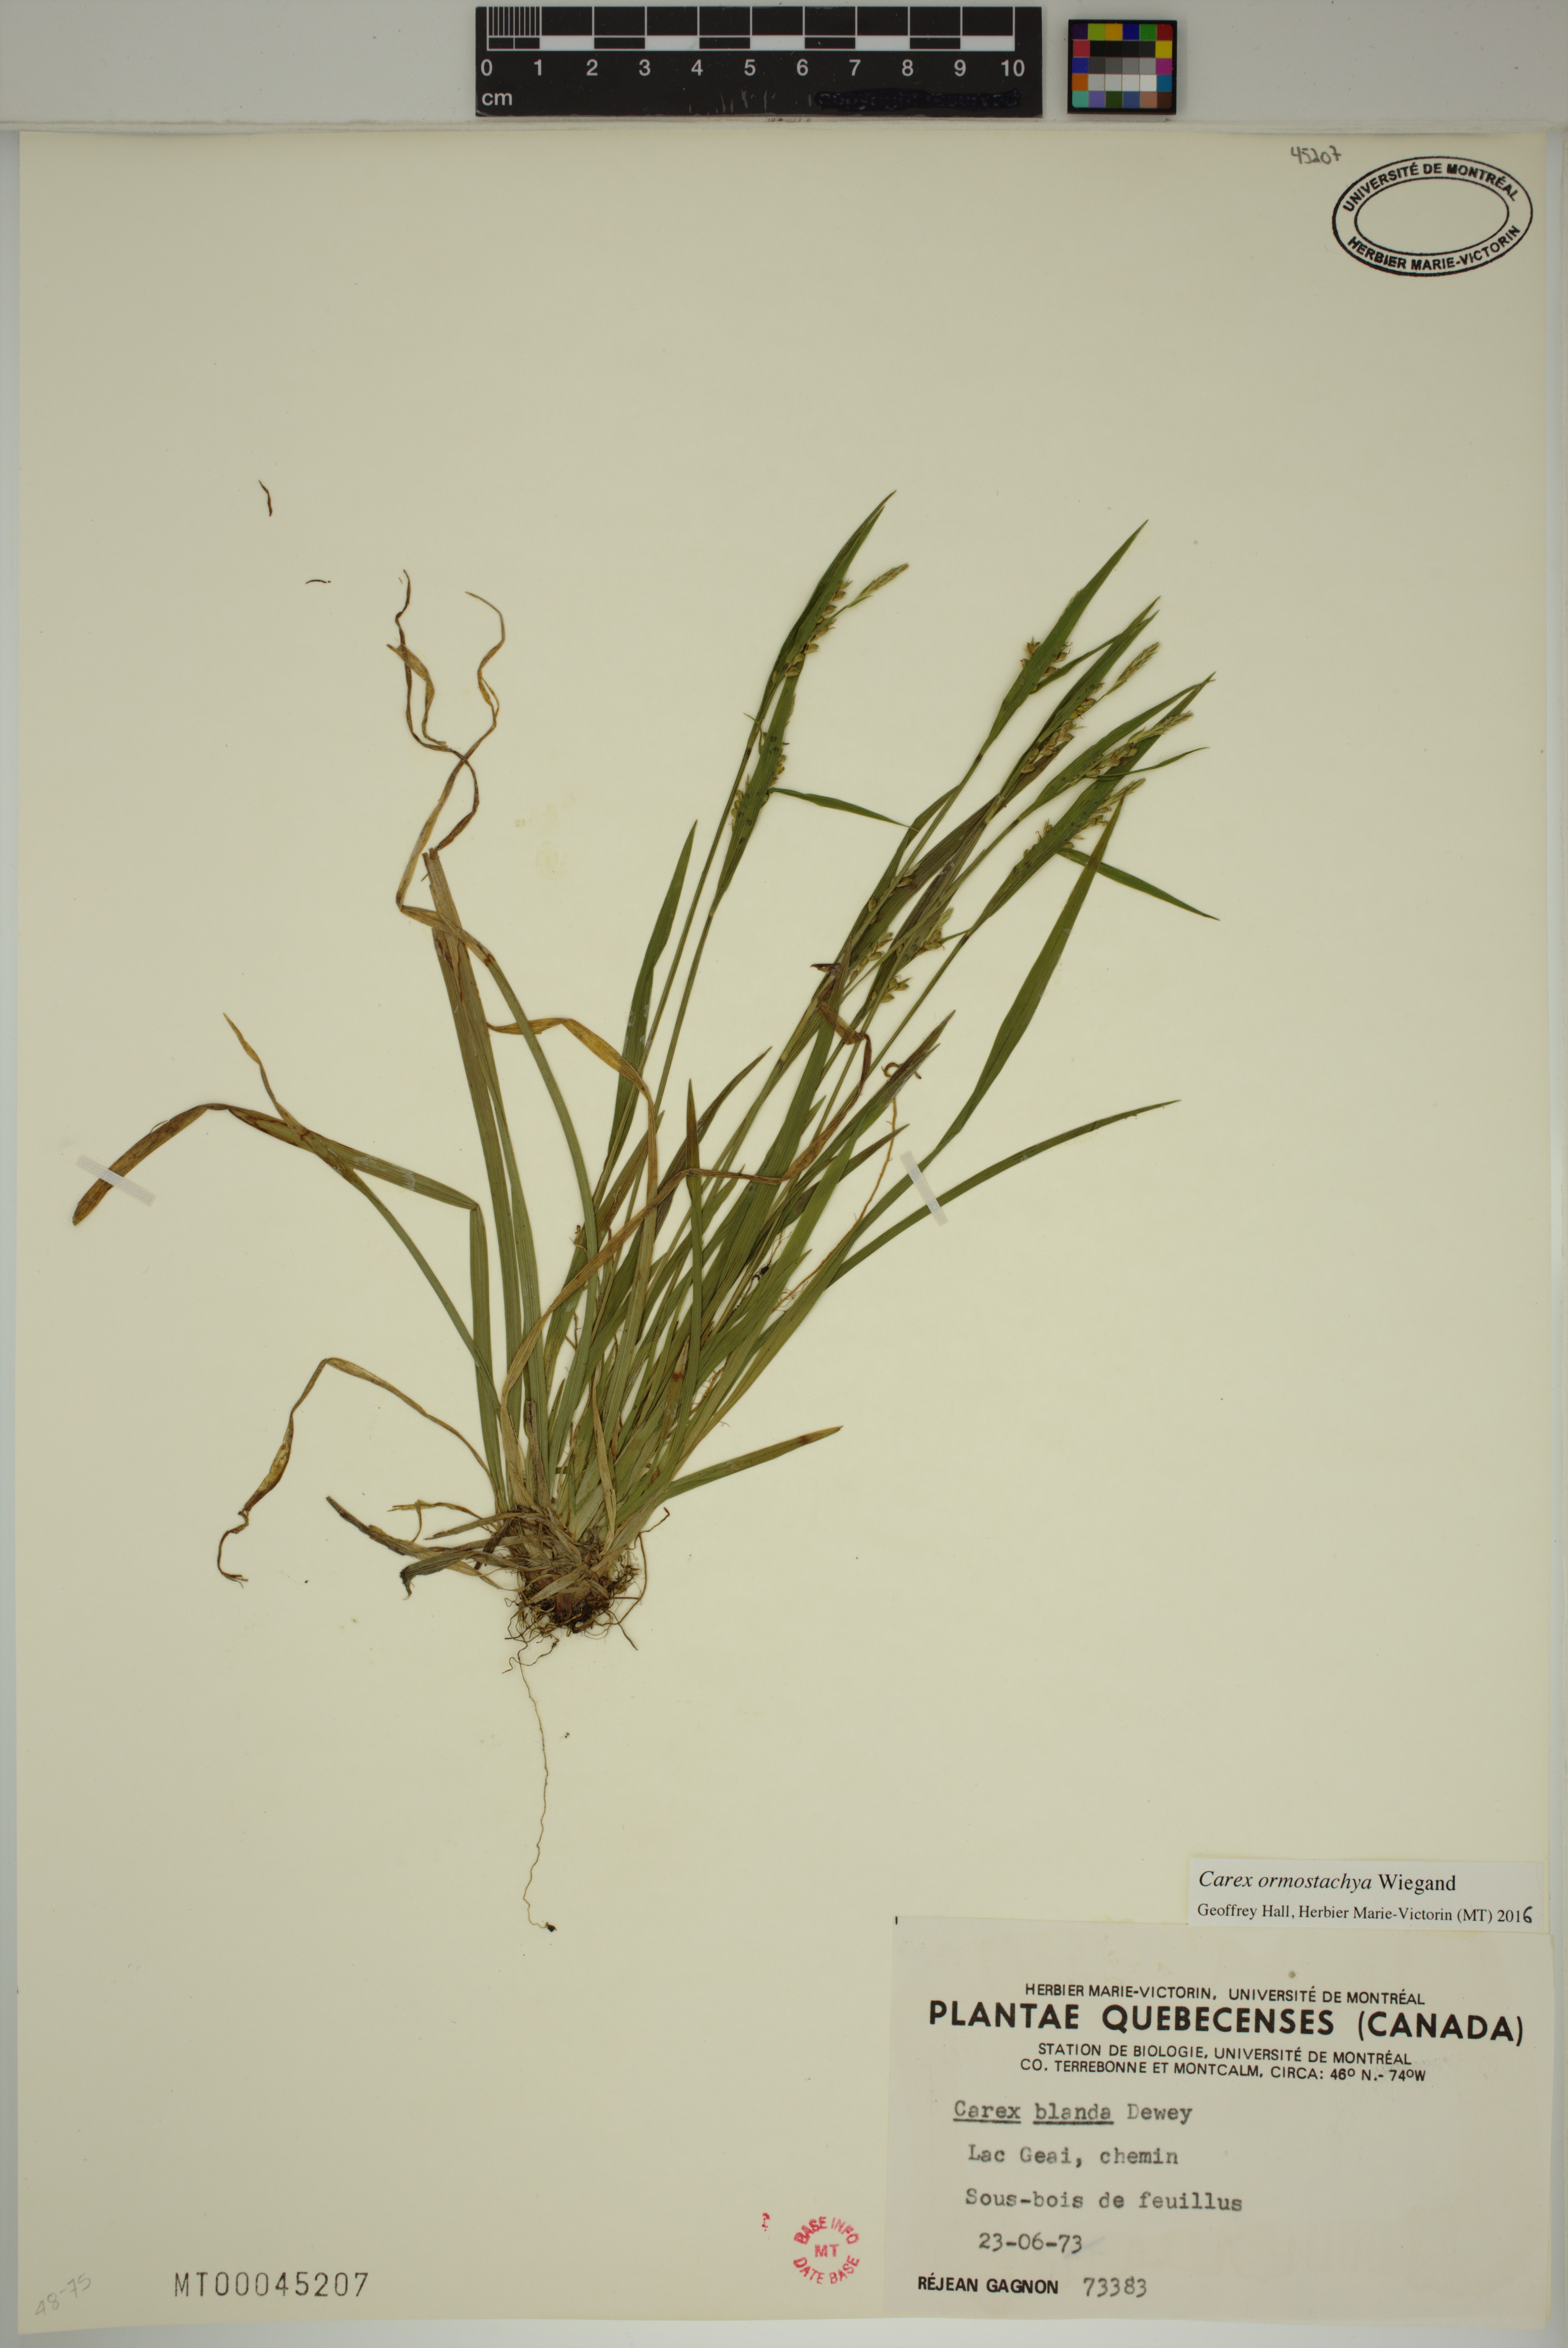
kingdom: Plantae
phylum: Tracheophyta
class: Liliopsida
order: Poales
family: Cyperaceae
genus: Carex
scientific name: Carex ormostachya
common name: Necklace spike sedge
